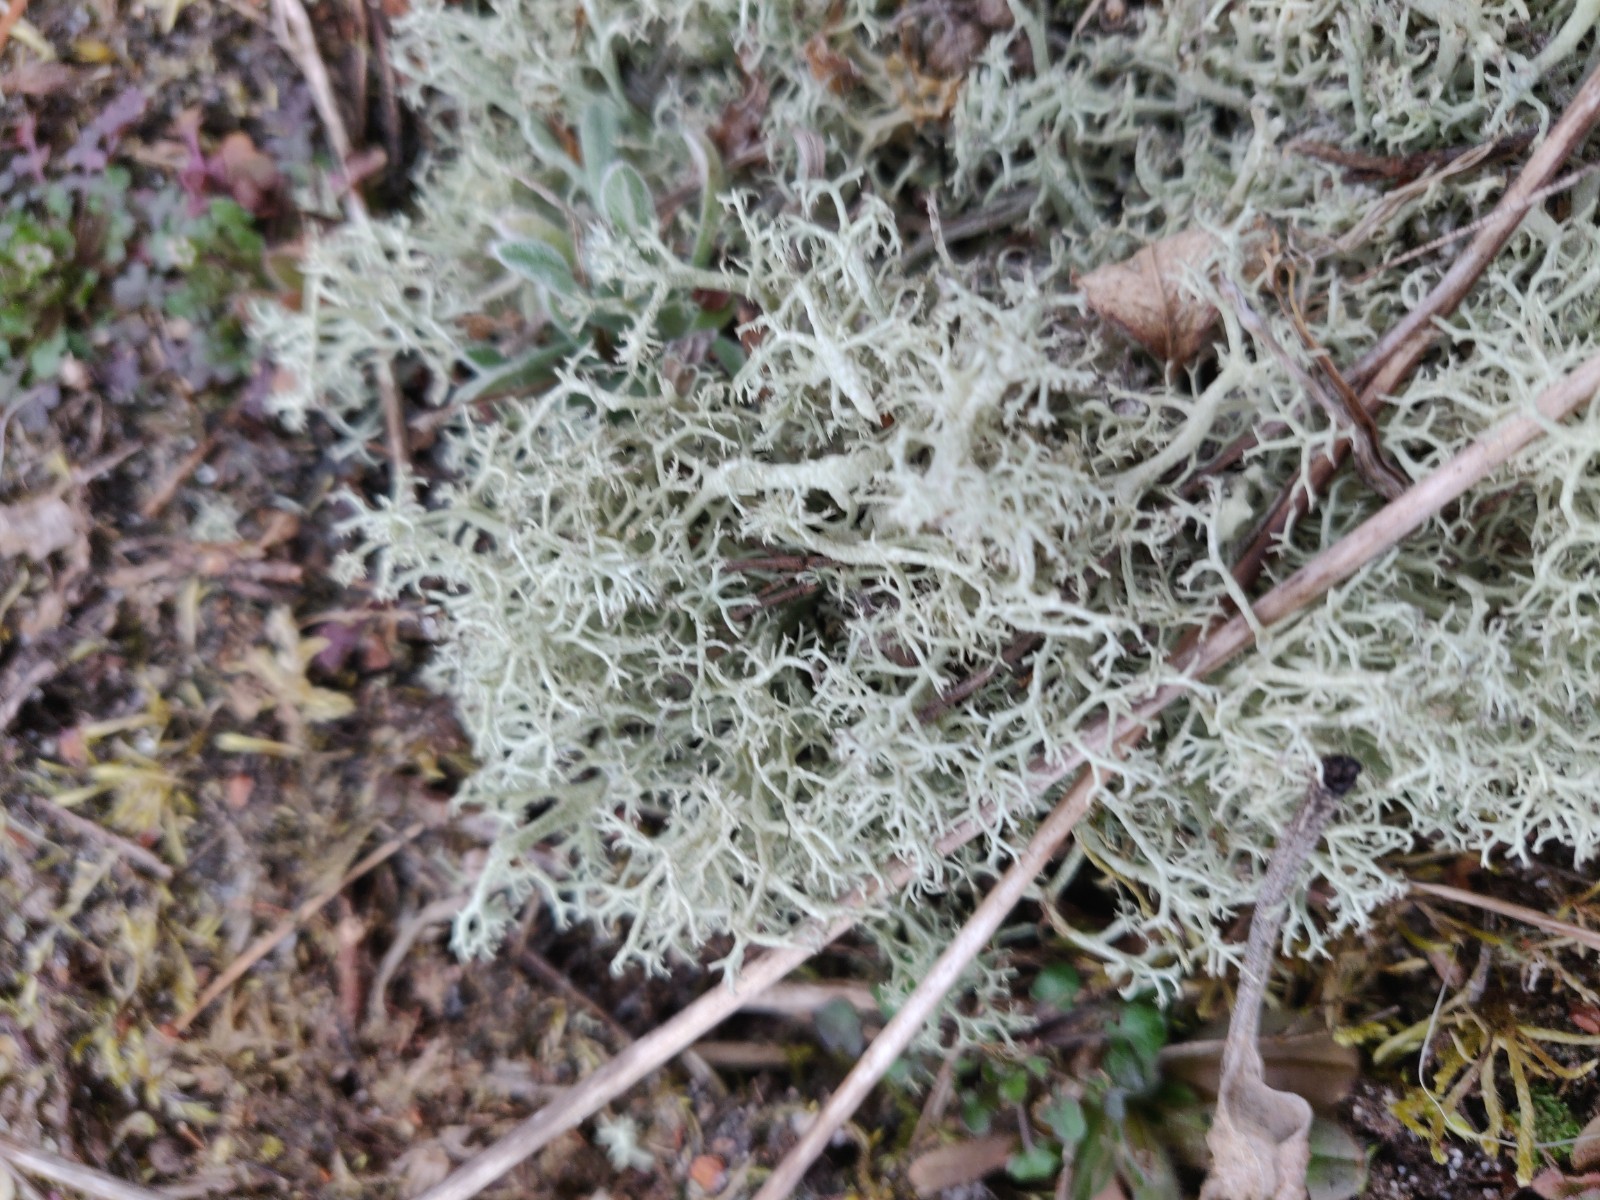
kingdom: Fungi
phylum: Ascomycota
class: Lecanoromycetes
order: Lecanorales
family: Cladoniaceae
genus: Cladonia
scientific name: Cladonia portentosa
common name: hede-rensdyrlav
